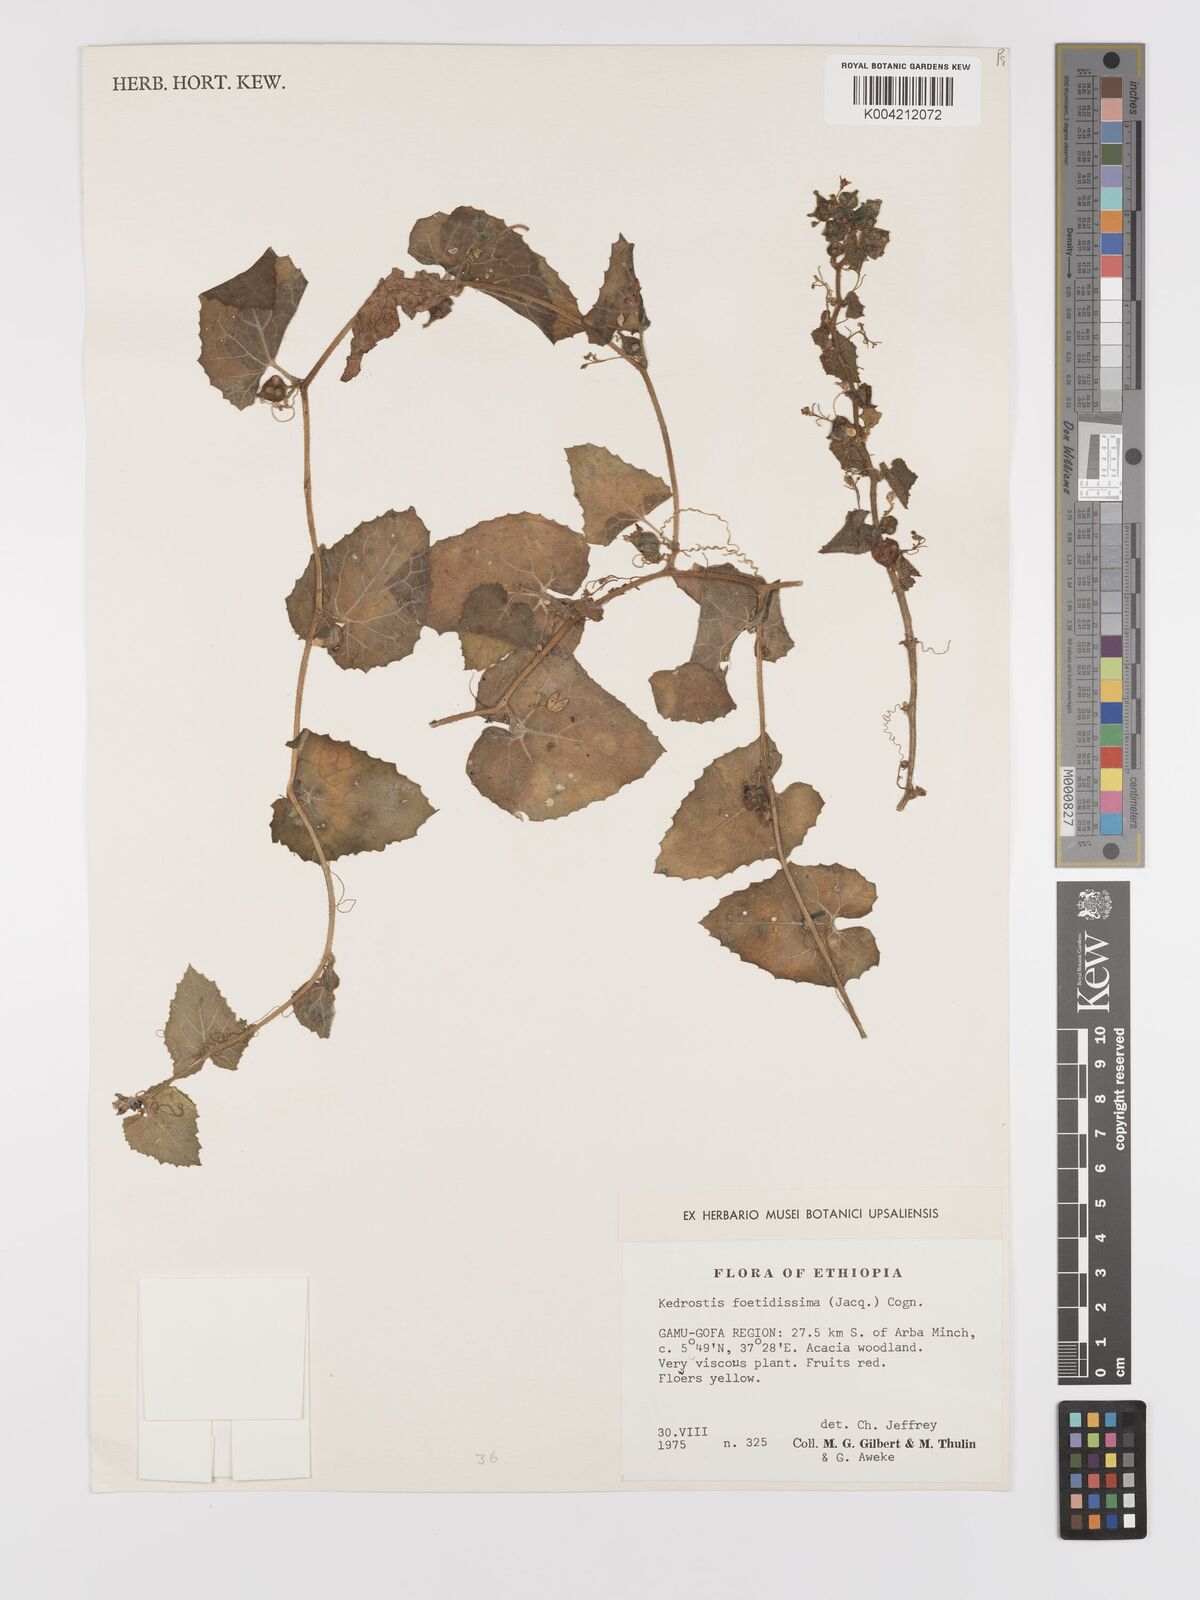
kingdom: Plantae
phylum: Tracheophyta
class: Magnoliopsida
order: Cucurbitales
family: Cucurbitaceae
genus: Kedrostis
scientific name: Kedrostis foetidissima
